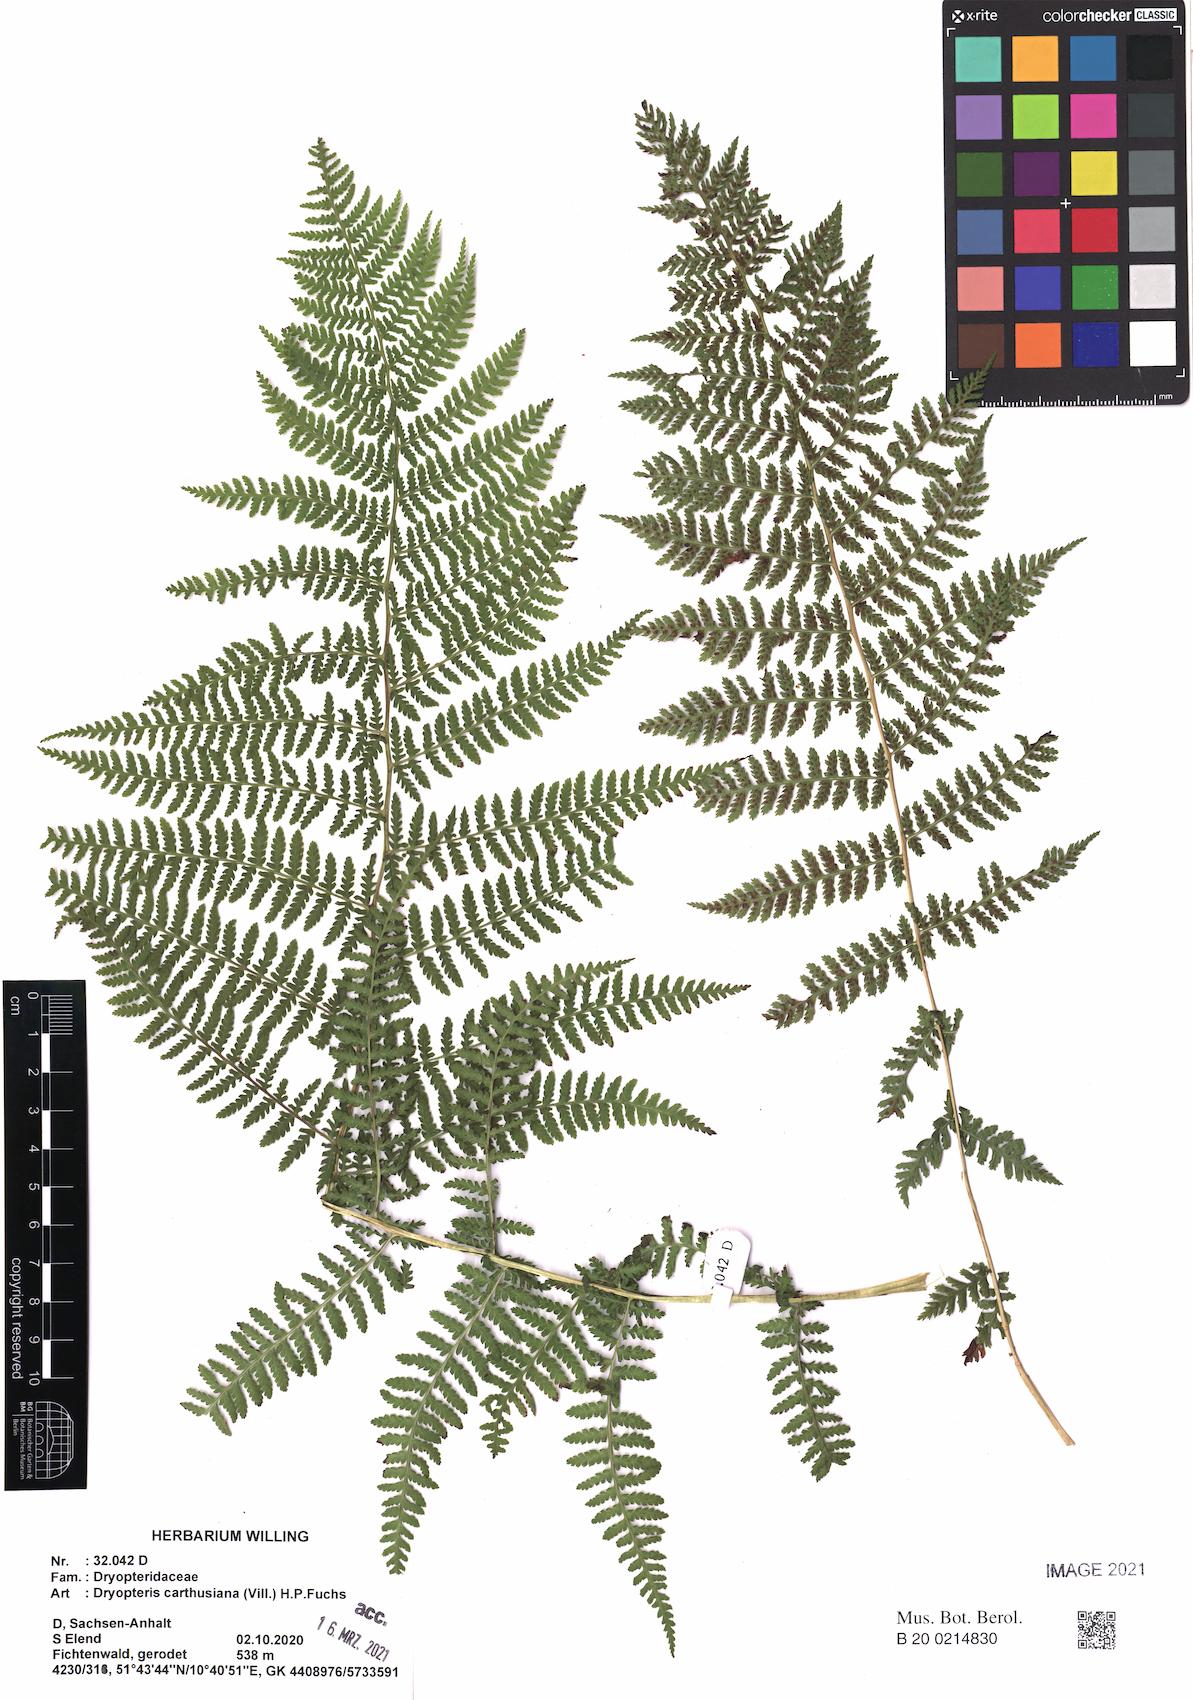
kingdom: Plantae
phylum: Tracheophyta
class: Polypodiopsida
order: Polypodiales
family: Athyriaceae
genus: Athyrium
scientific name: Athyrium filix-femina
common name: Lady fern
